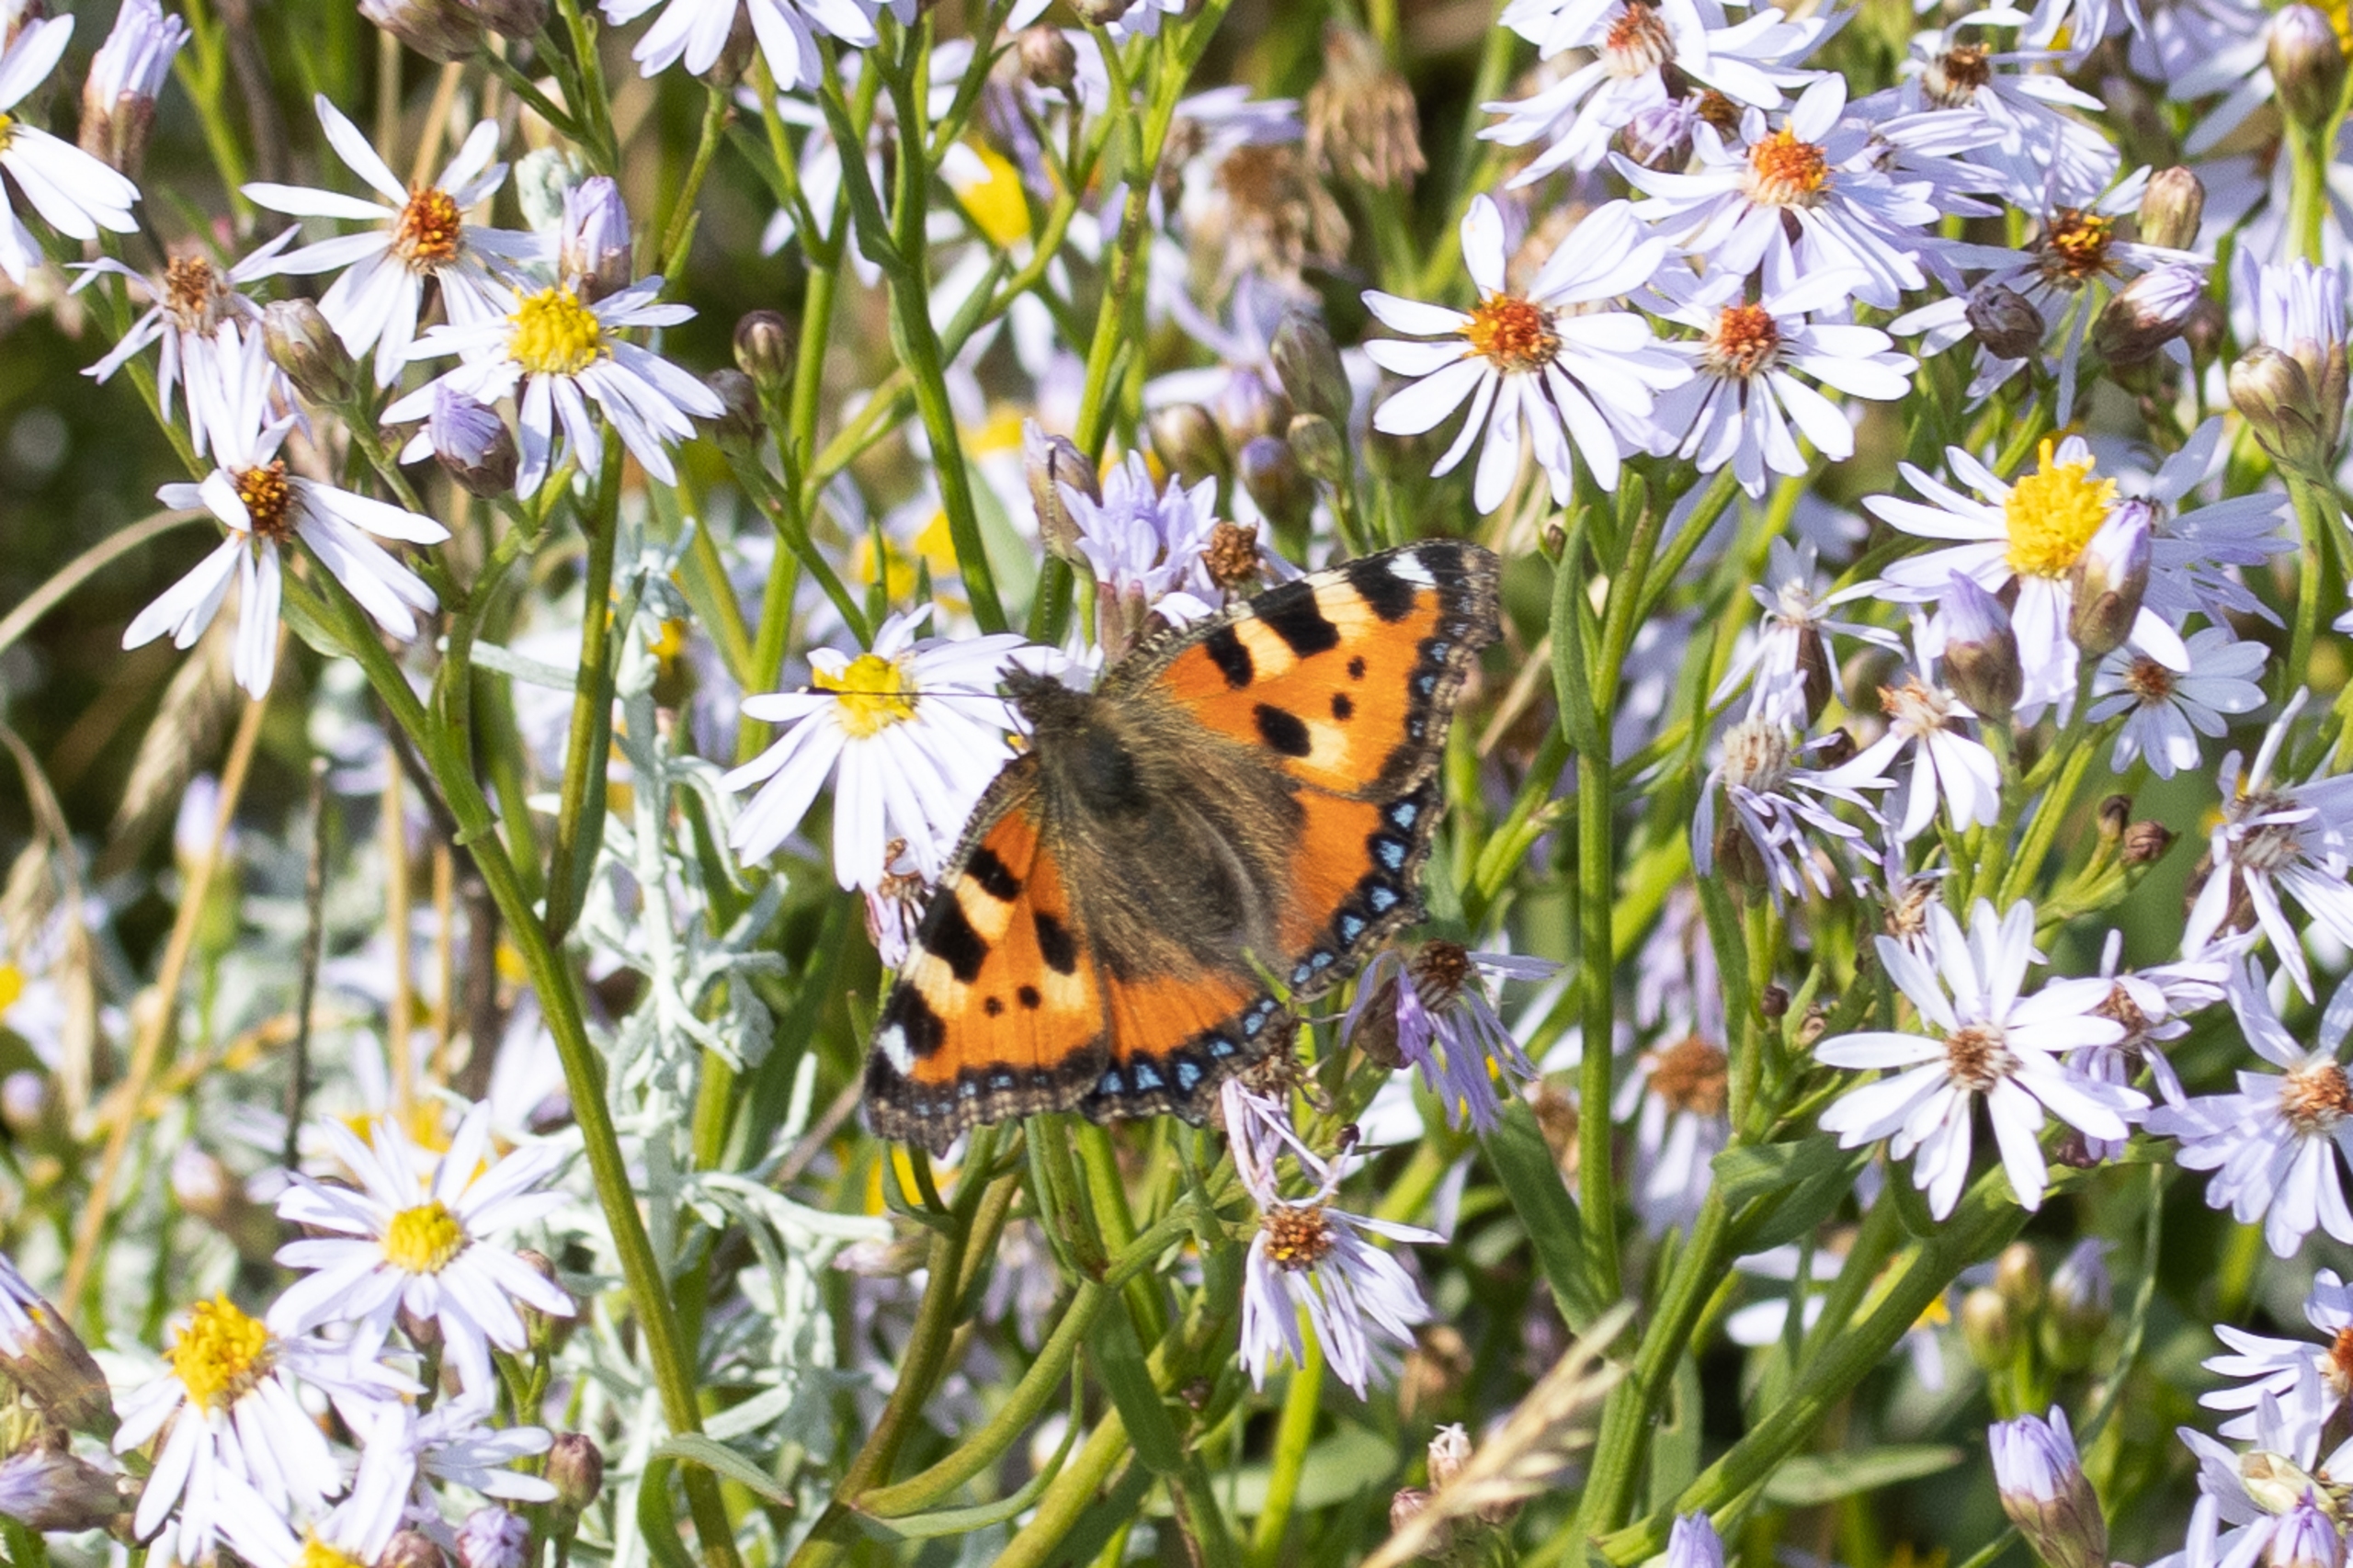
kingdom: Animalia
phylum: Arthropoda
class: Insecta
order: Lepidoptera
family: Nymphalidae
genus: Aglais
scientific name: Aglais urticae
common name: Nældens takvinge
